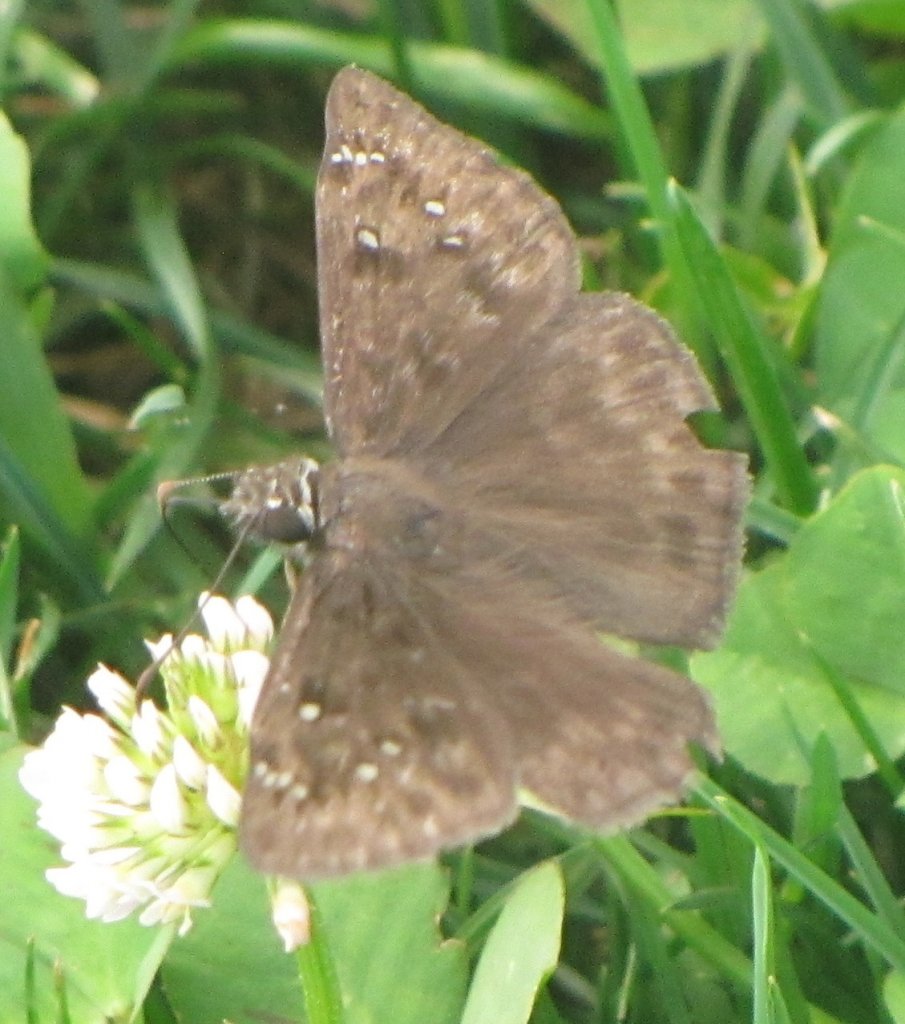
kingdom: Animalia
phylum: Arthropoda
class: Insecta
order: Lepidoptera
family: Hesperiidae
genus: Gesta
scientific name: Gesta
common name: Horace's Duskywing
